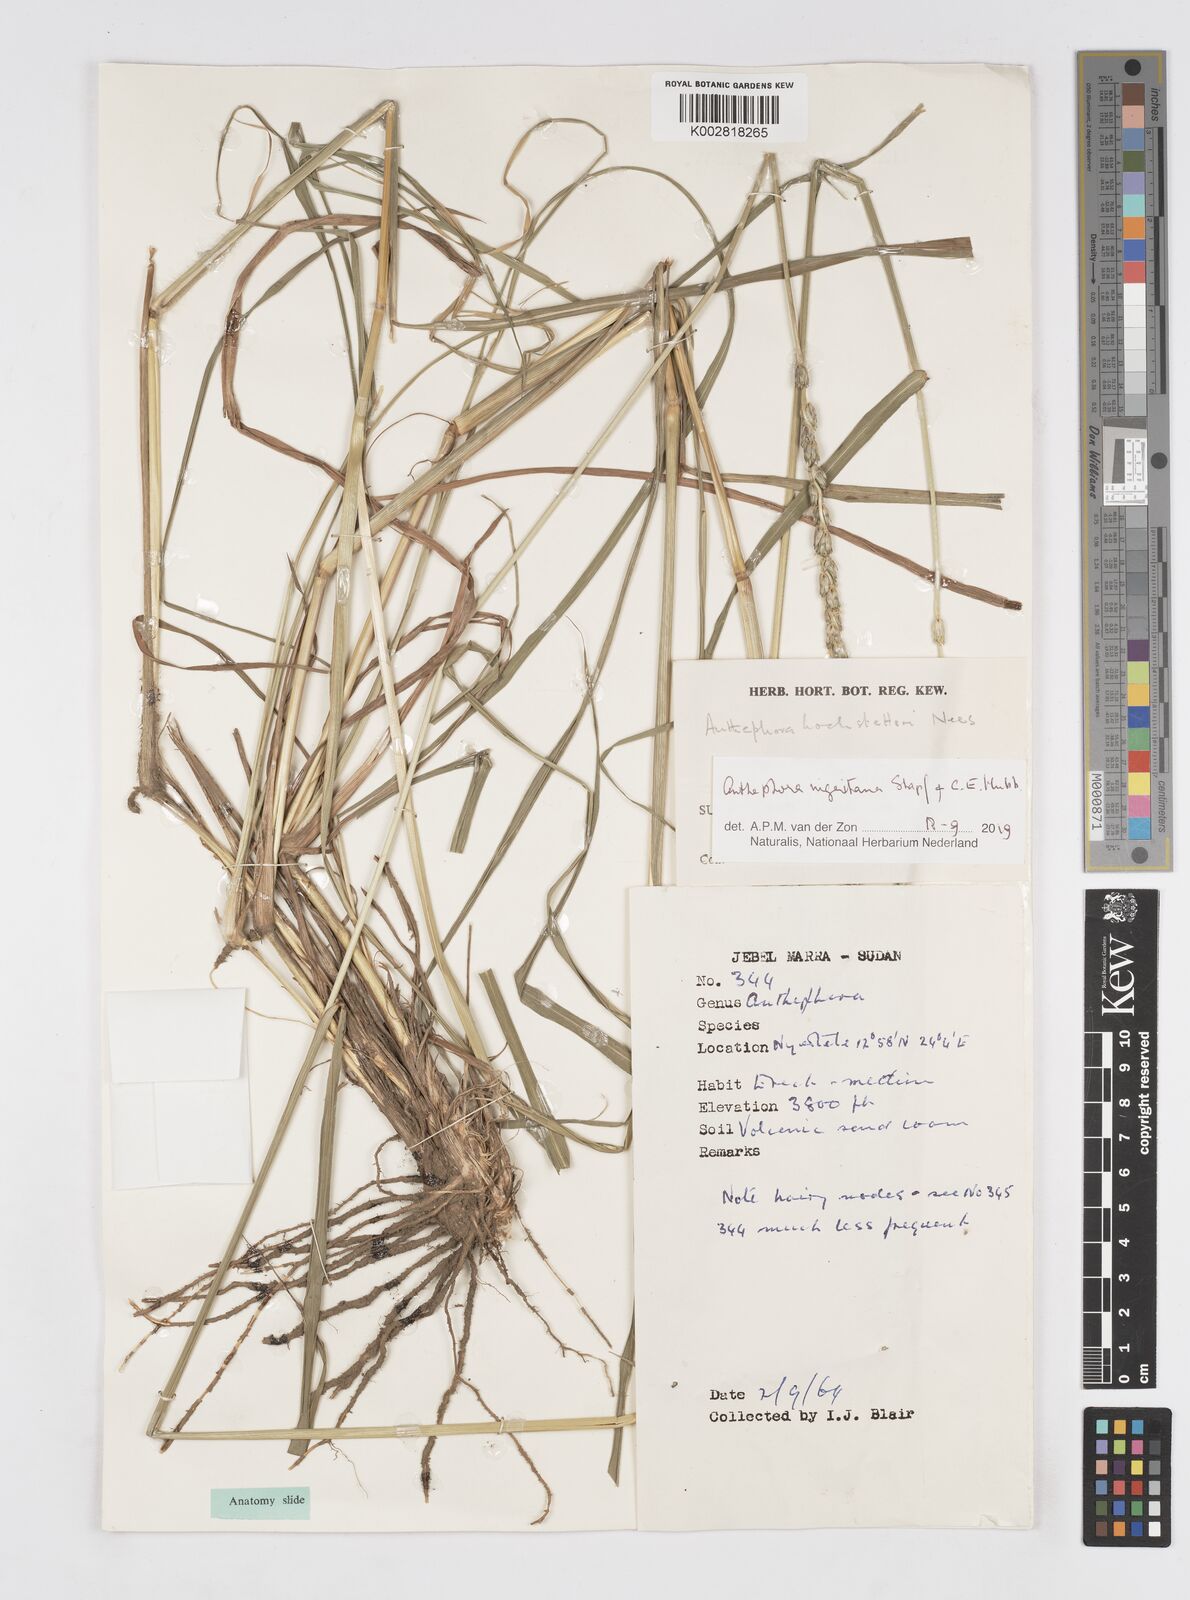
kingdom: Plantae
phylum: Tracheophyta
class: Liliopsida
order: Poales
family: Poaceae
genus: Anthephora
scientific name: Anthephora nigritana
